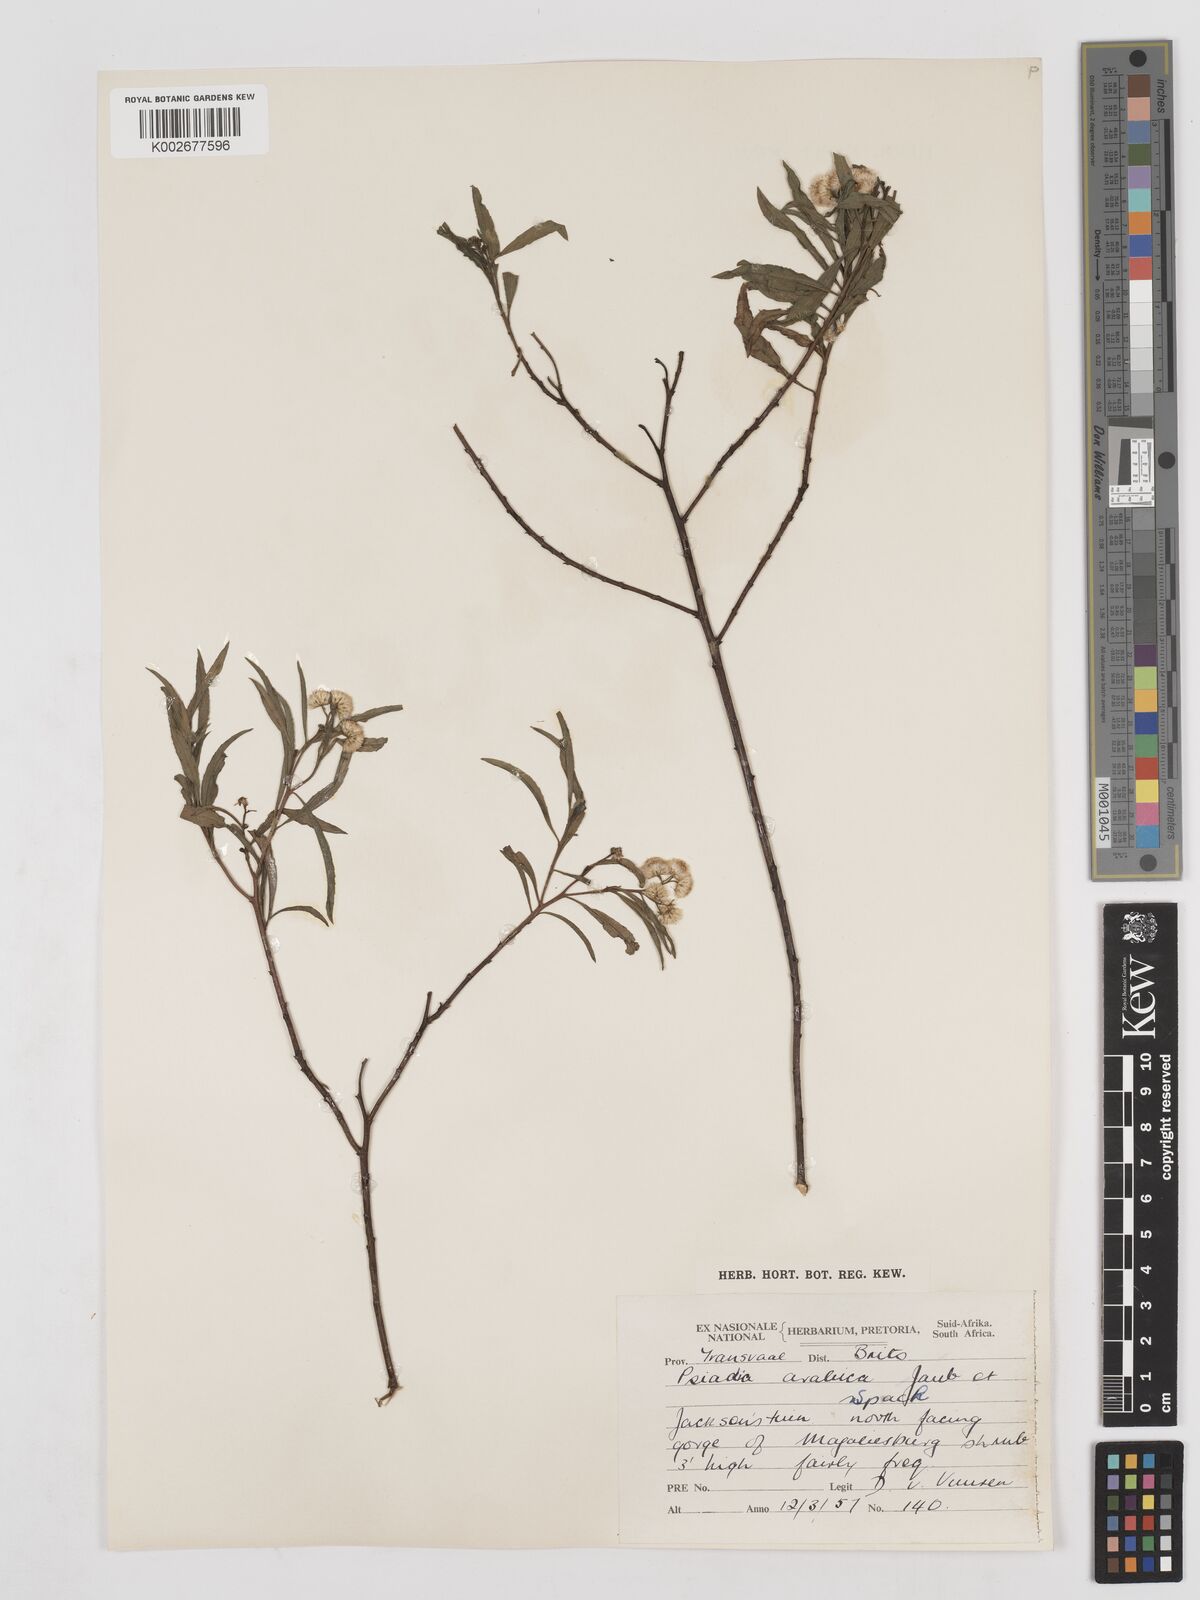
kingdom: Plantae
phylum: Tracheophyta
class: Magnoliopsida
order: Asterales
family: Asteraceae
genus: Psiadia
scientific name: Psiadia punctulata
